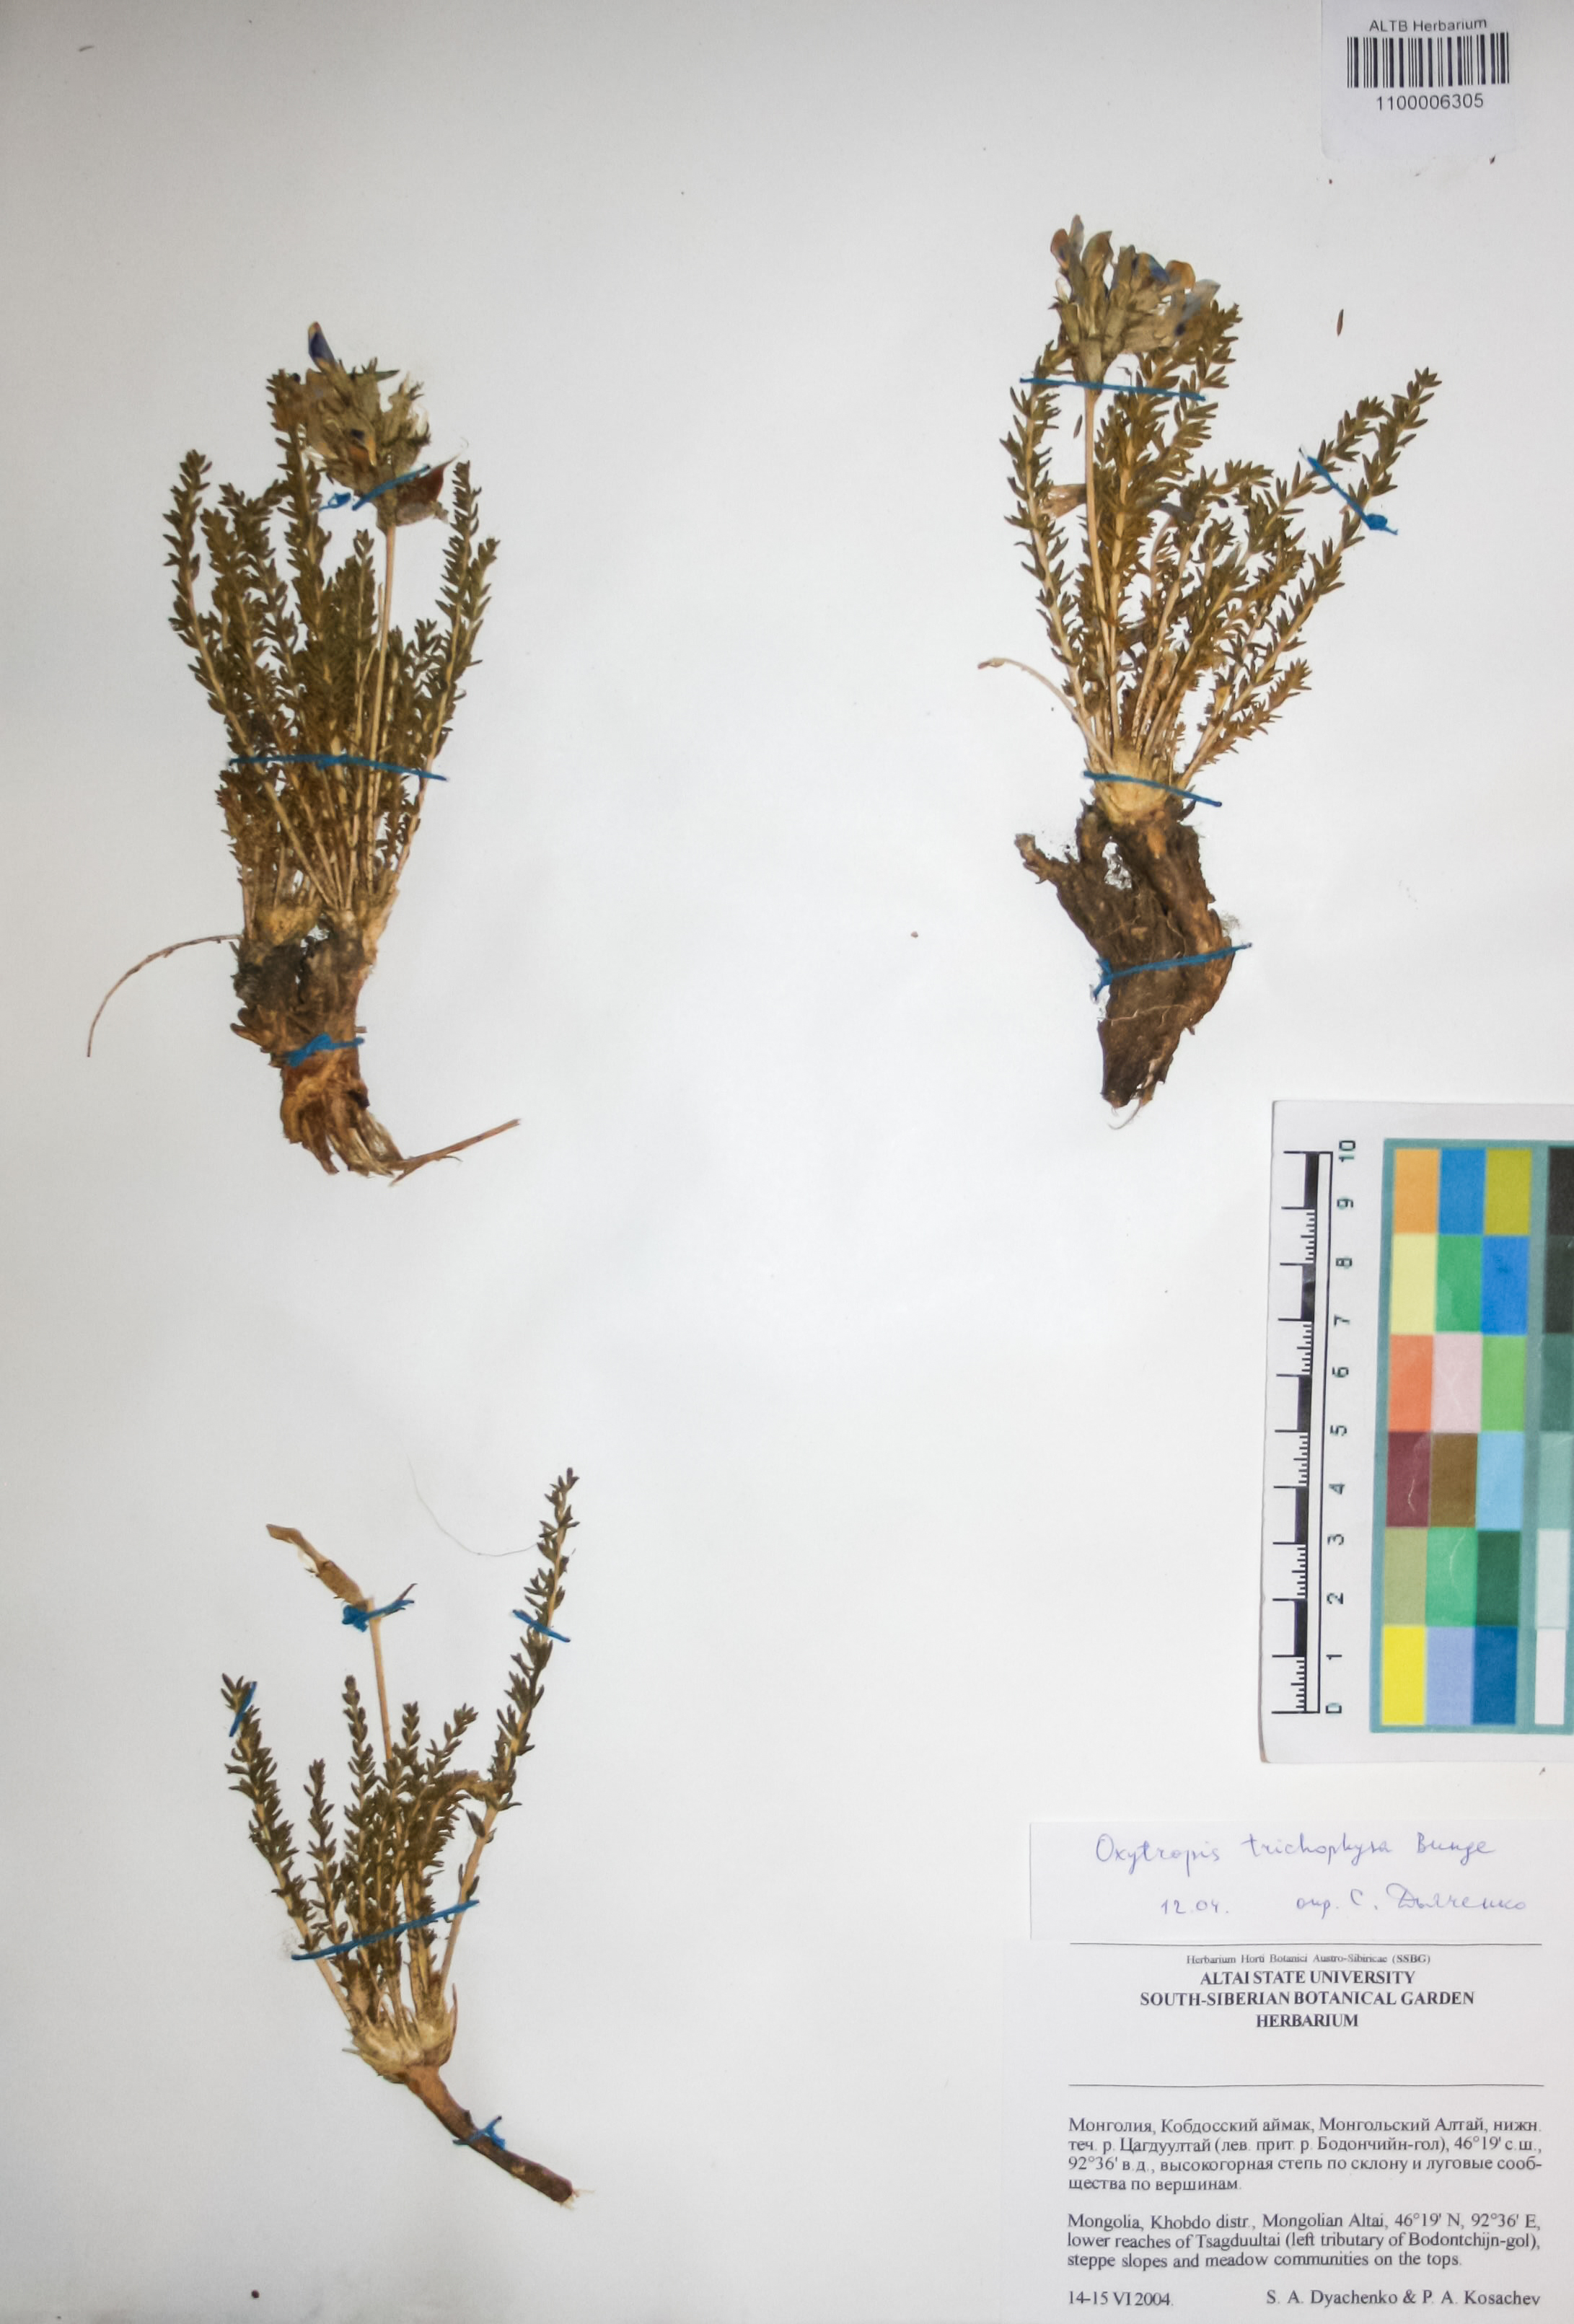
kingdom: Plantae
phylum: Tracheophyta
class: Magnoliopsida
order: Fabales
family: Fabaceae
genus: Oxytropis
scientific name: Oxytropis trichophysa
